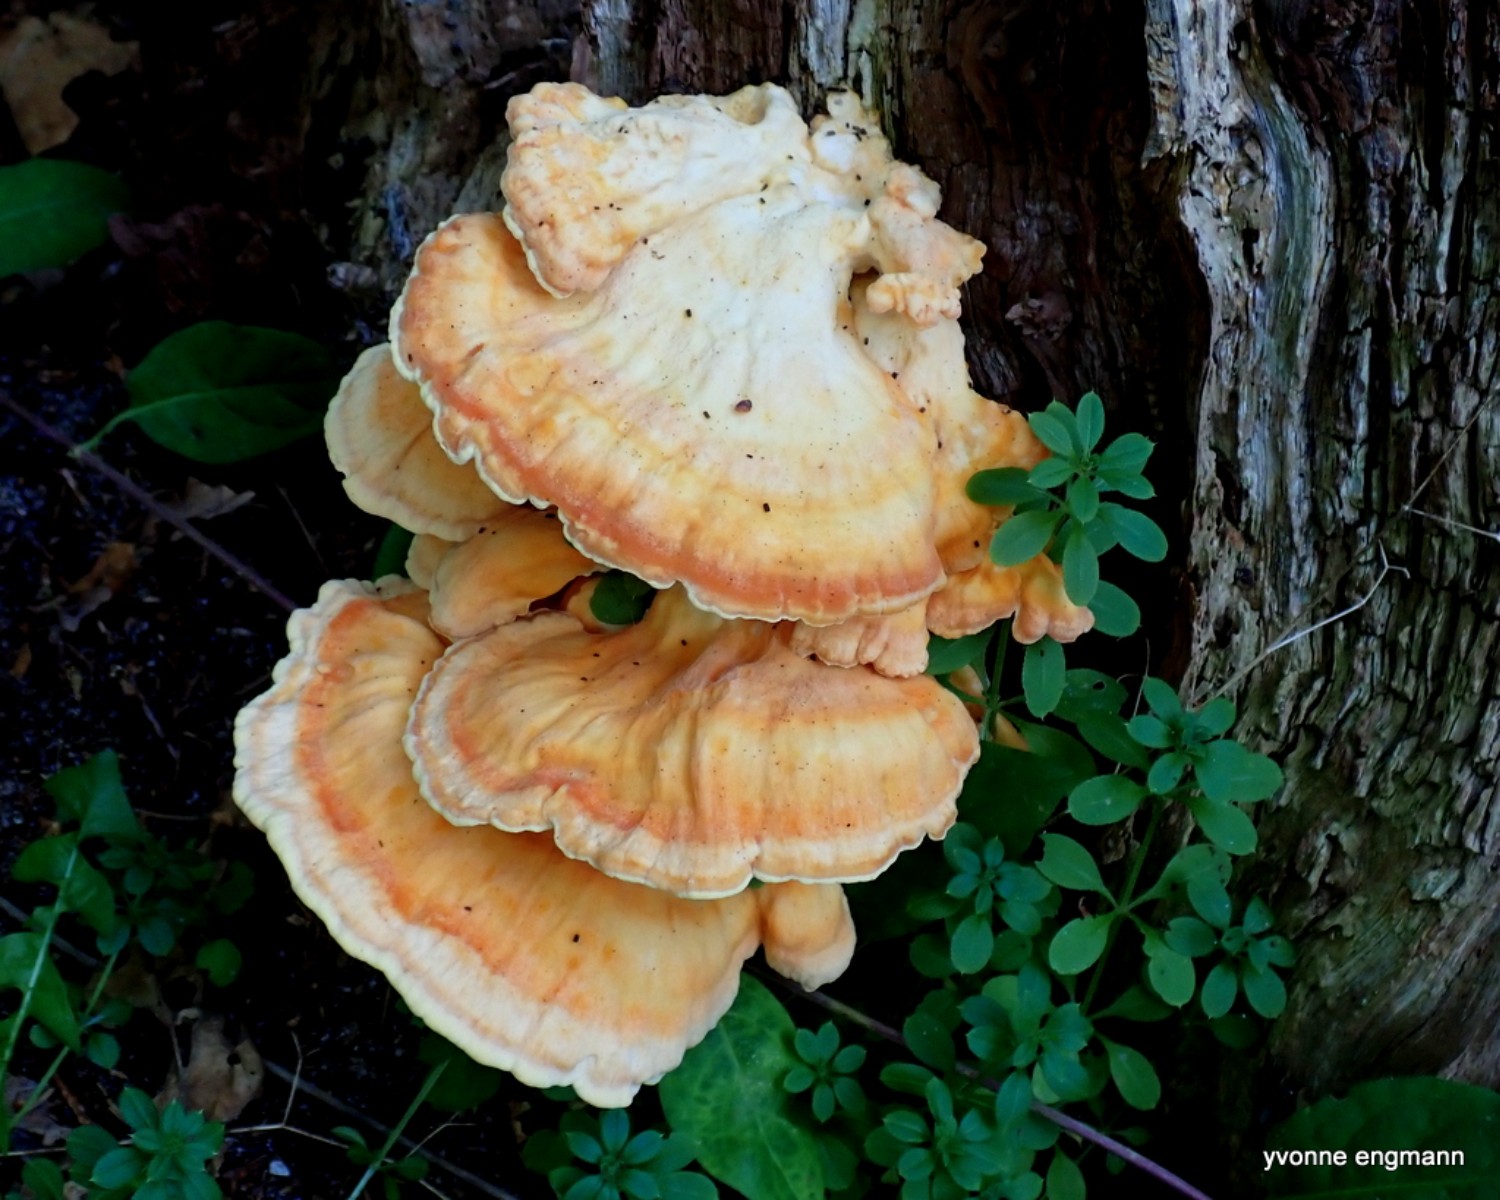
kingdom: Fungi
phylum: Basidiomycota
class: Agaricomycetes
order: Polyporales
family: Laetiporaceae
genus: Laetiporus
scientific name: Laetiporus sulphureus
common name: svovlporesvamp
